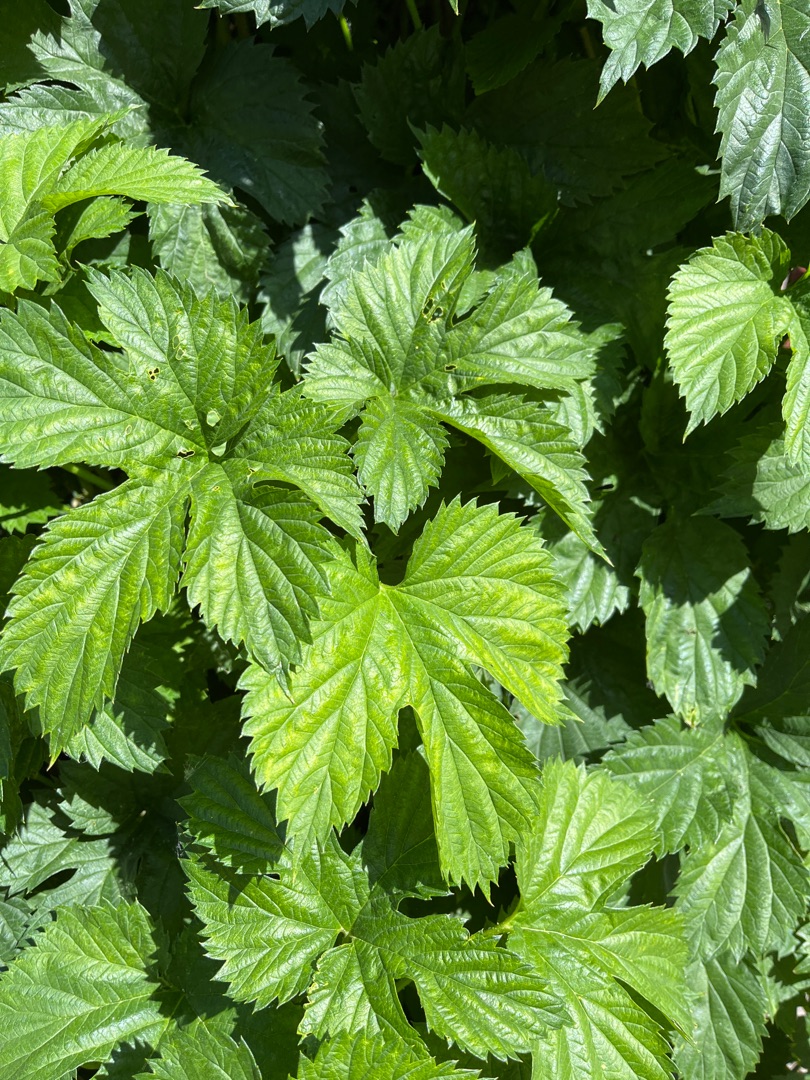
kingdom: Plantae
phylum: Tracheophyta
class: Magnoliopsida
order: Rosales
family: Cannabaceae
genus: Humulus
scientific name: Humulus lupulus
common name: Humle
